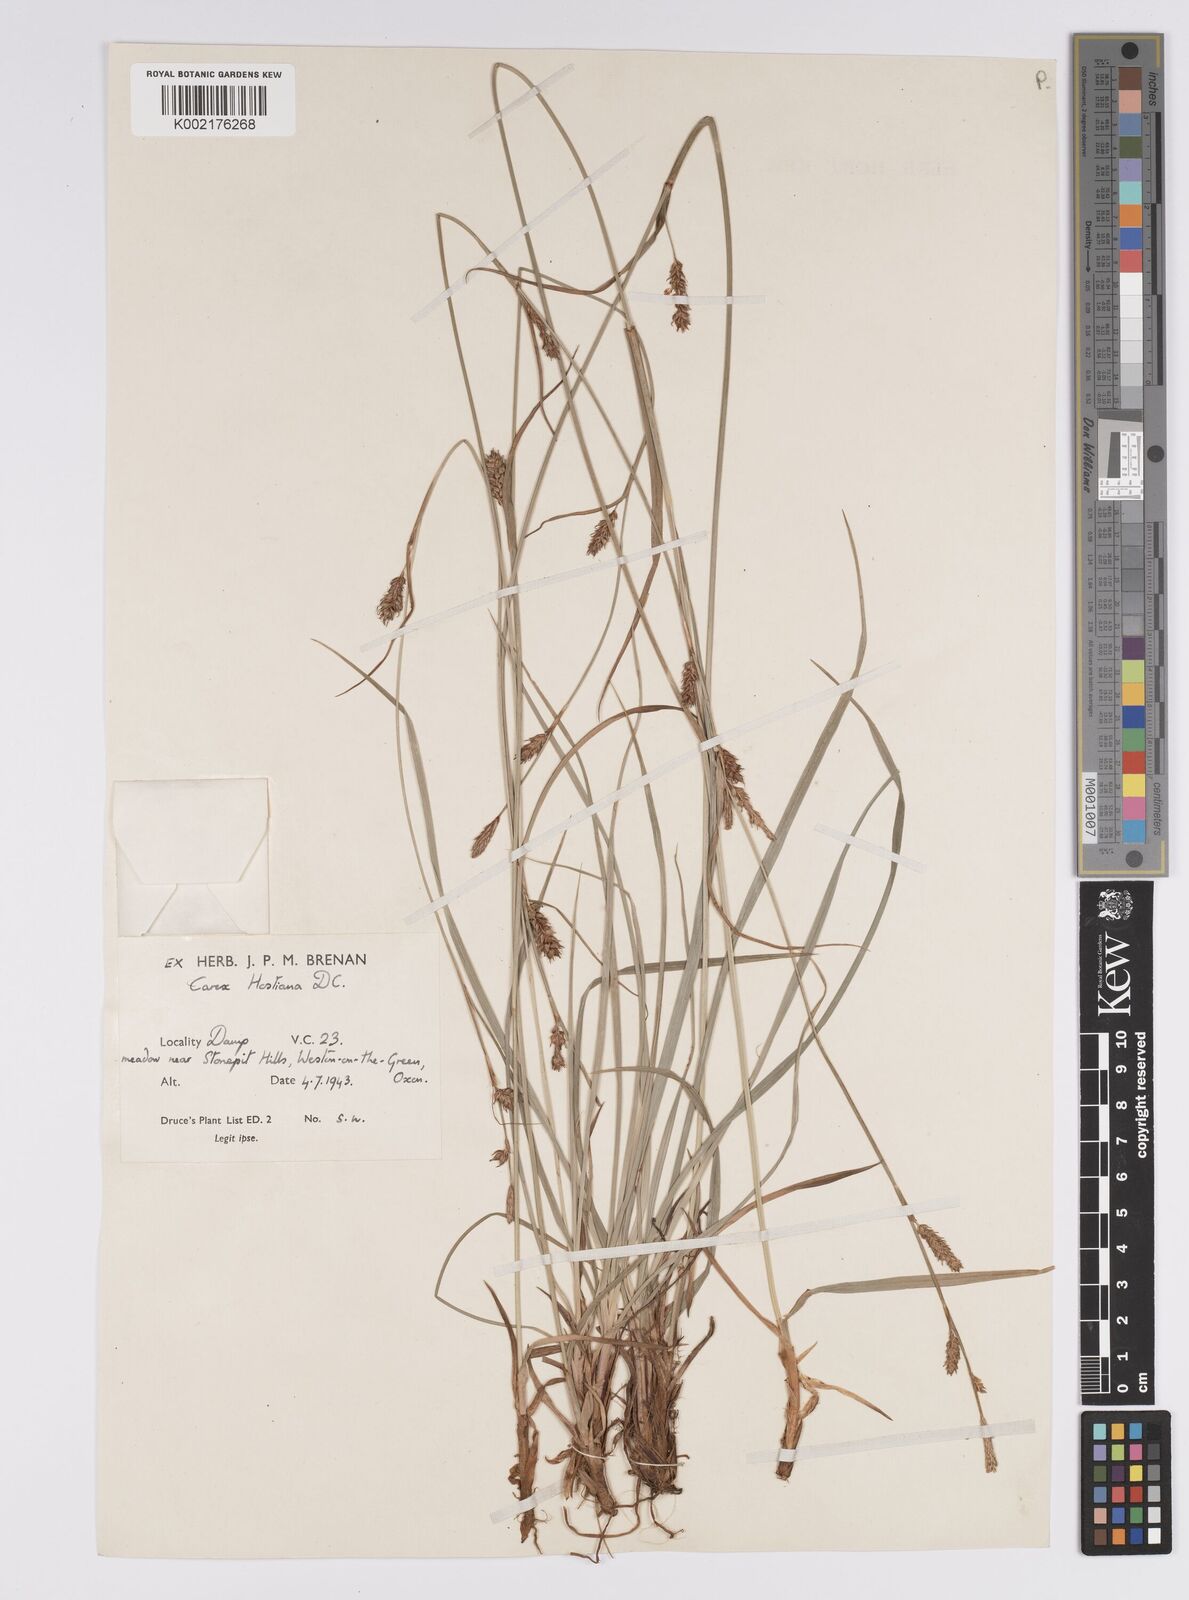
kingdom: Plantae
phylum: Tracheophyta
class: Liliopsida
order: Poales
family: Cyperaceae
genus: Carex
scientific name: Carex distans
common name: Distant sedge
